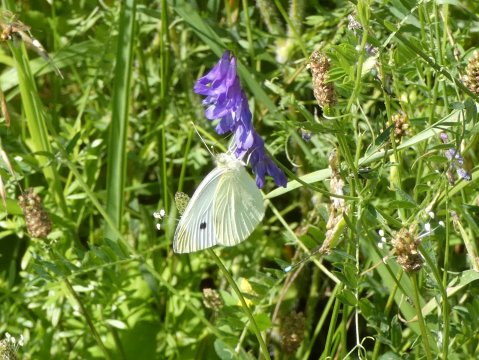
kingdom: Animalia
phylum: Arthropoda
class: Insecta
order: Lepidoptera
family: Pieridae
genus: Pieris
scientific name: Pieris rapae
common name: Cabbage White
